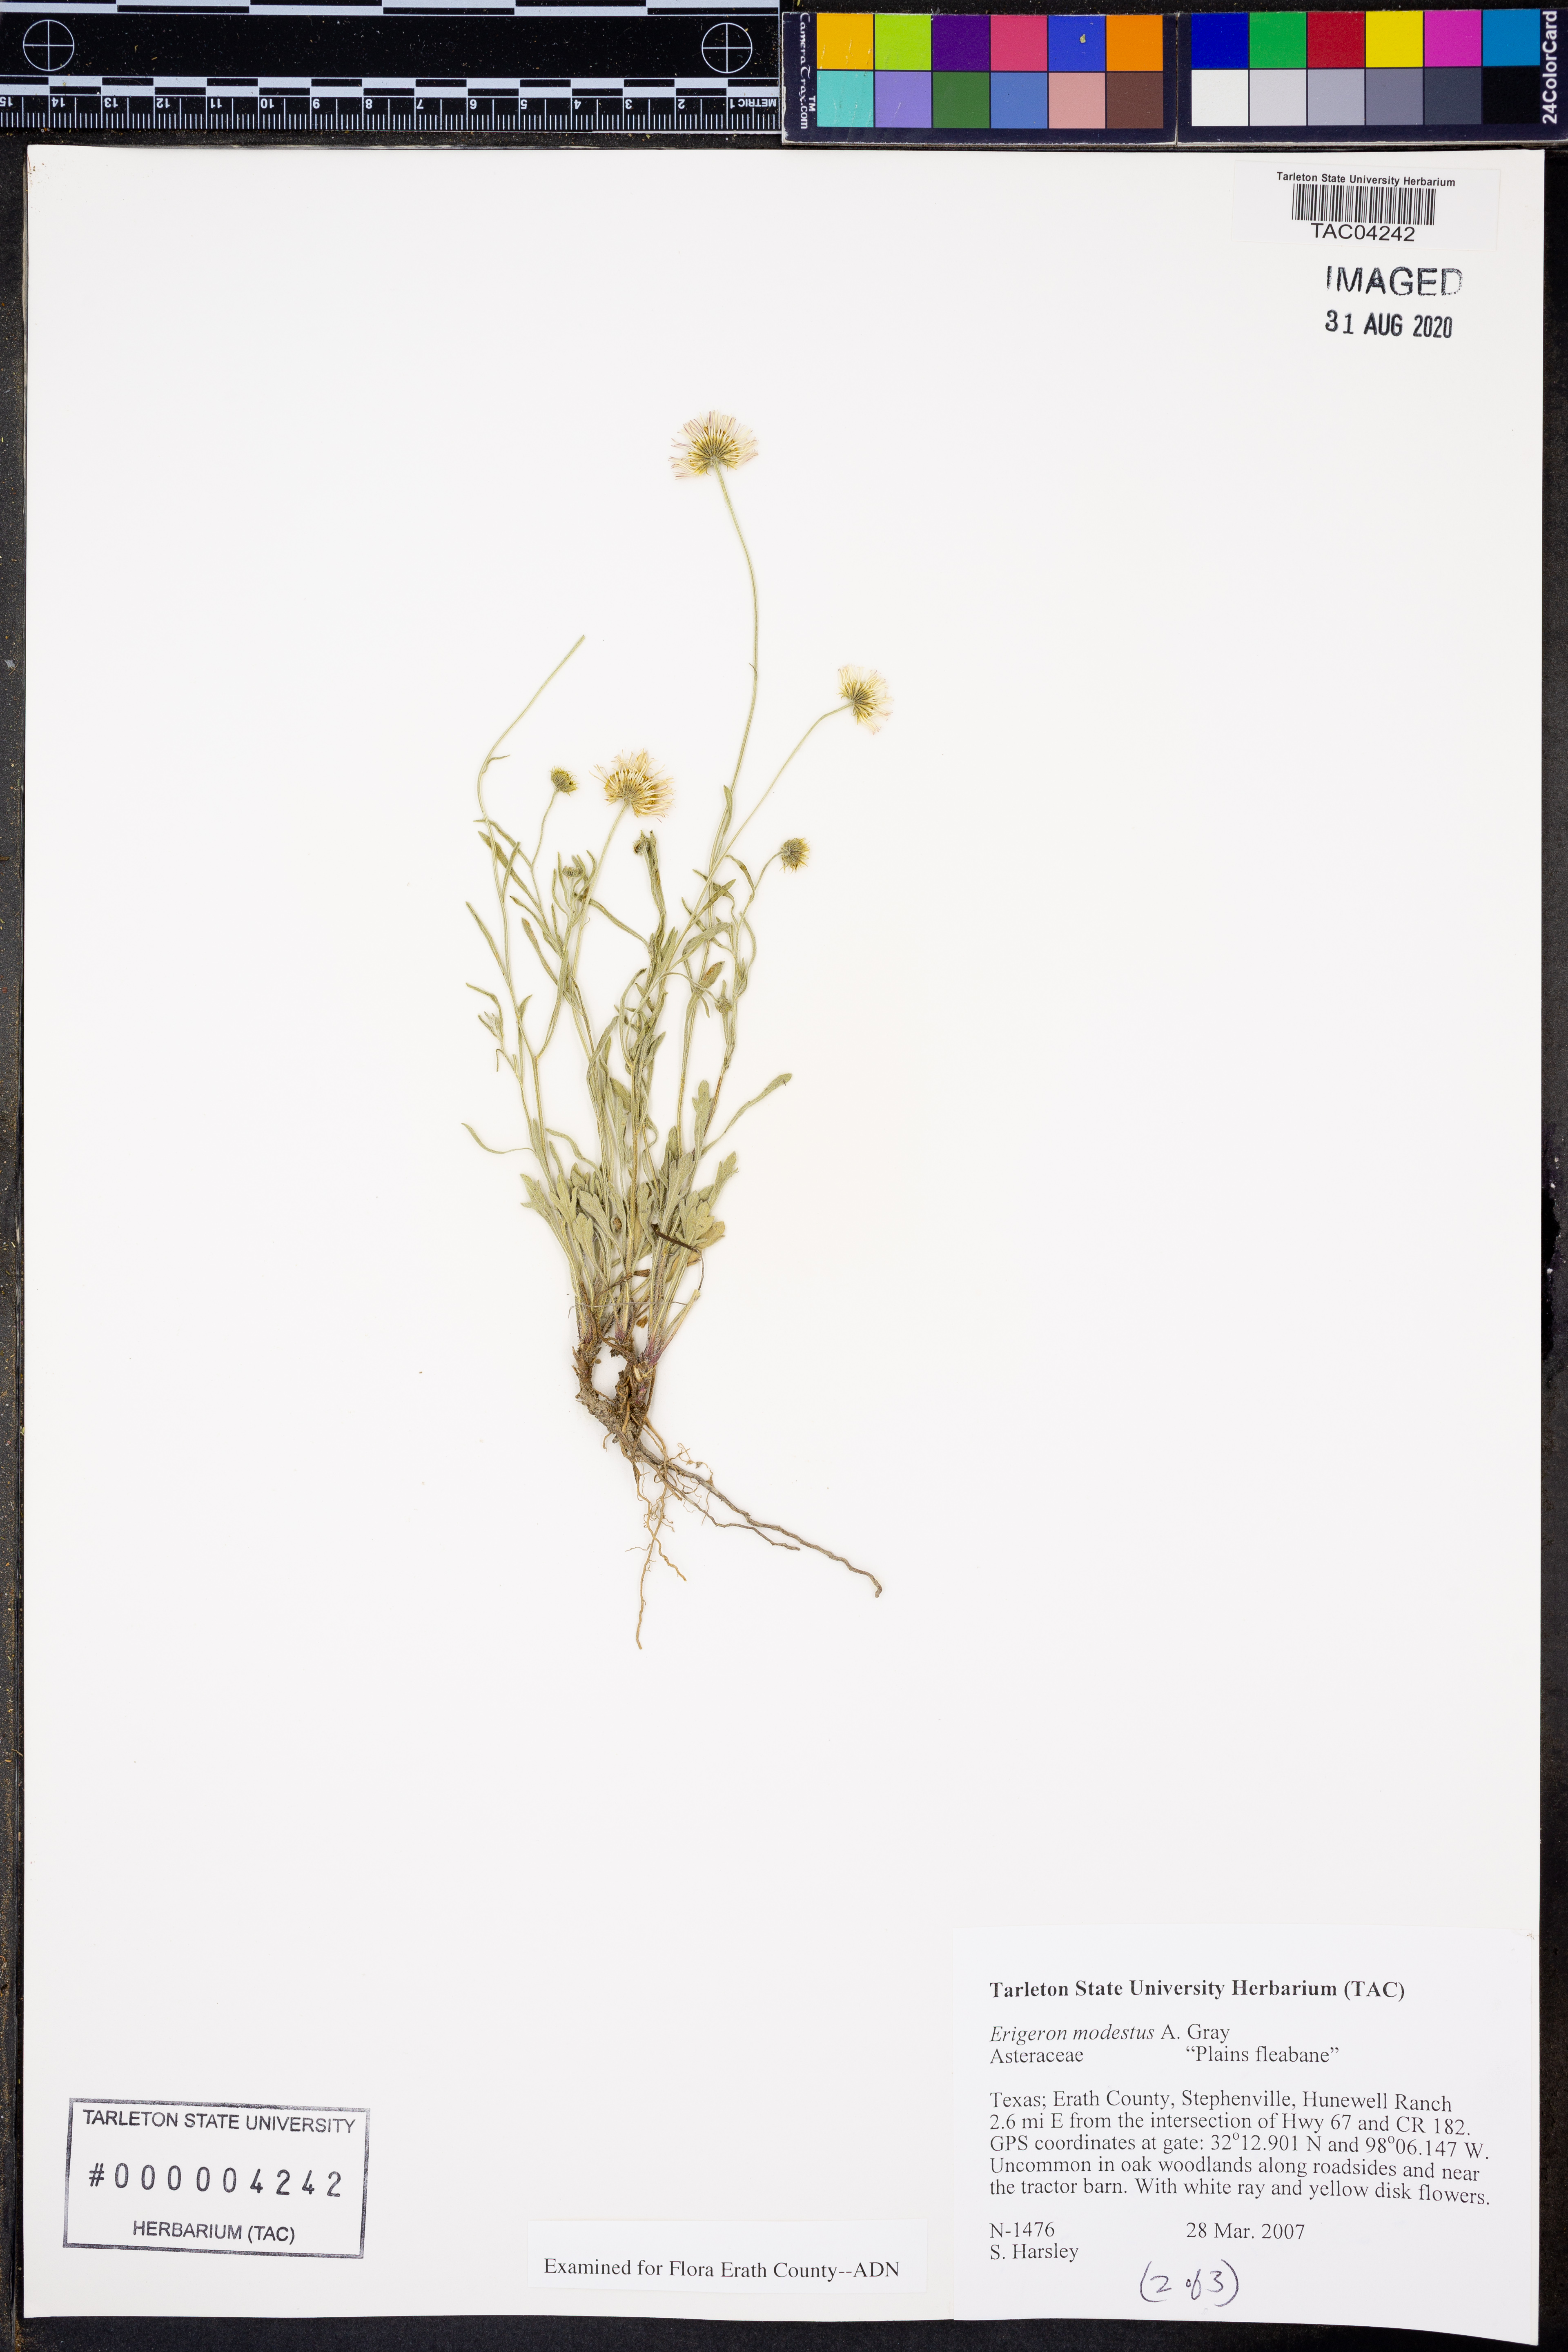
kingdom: Plantae
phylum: Tracheophyta
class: Magnoliopsida
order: Asterales
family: Asteraceae
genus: Erigeron
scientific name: Erigeron modestus
